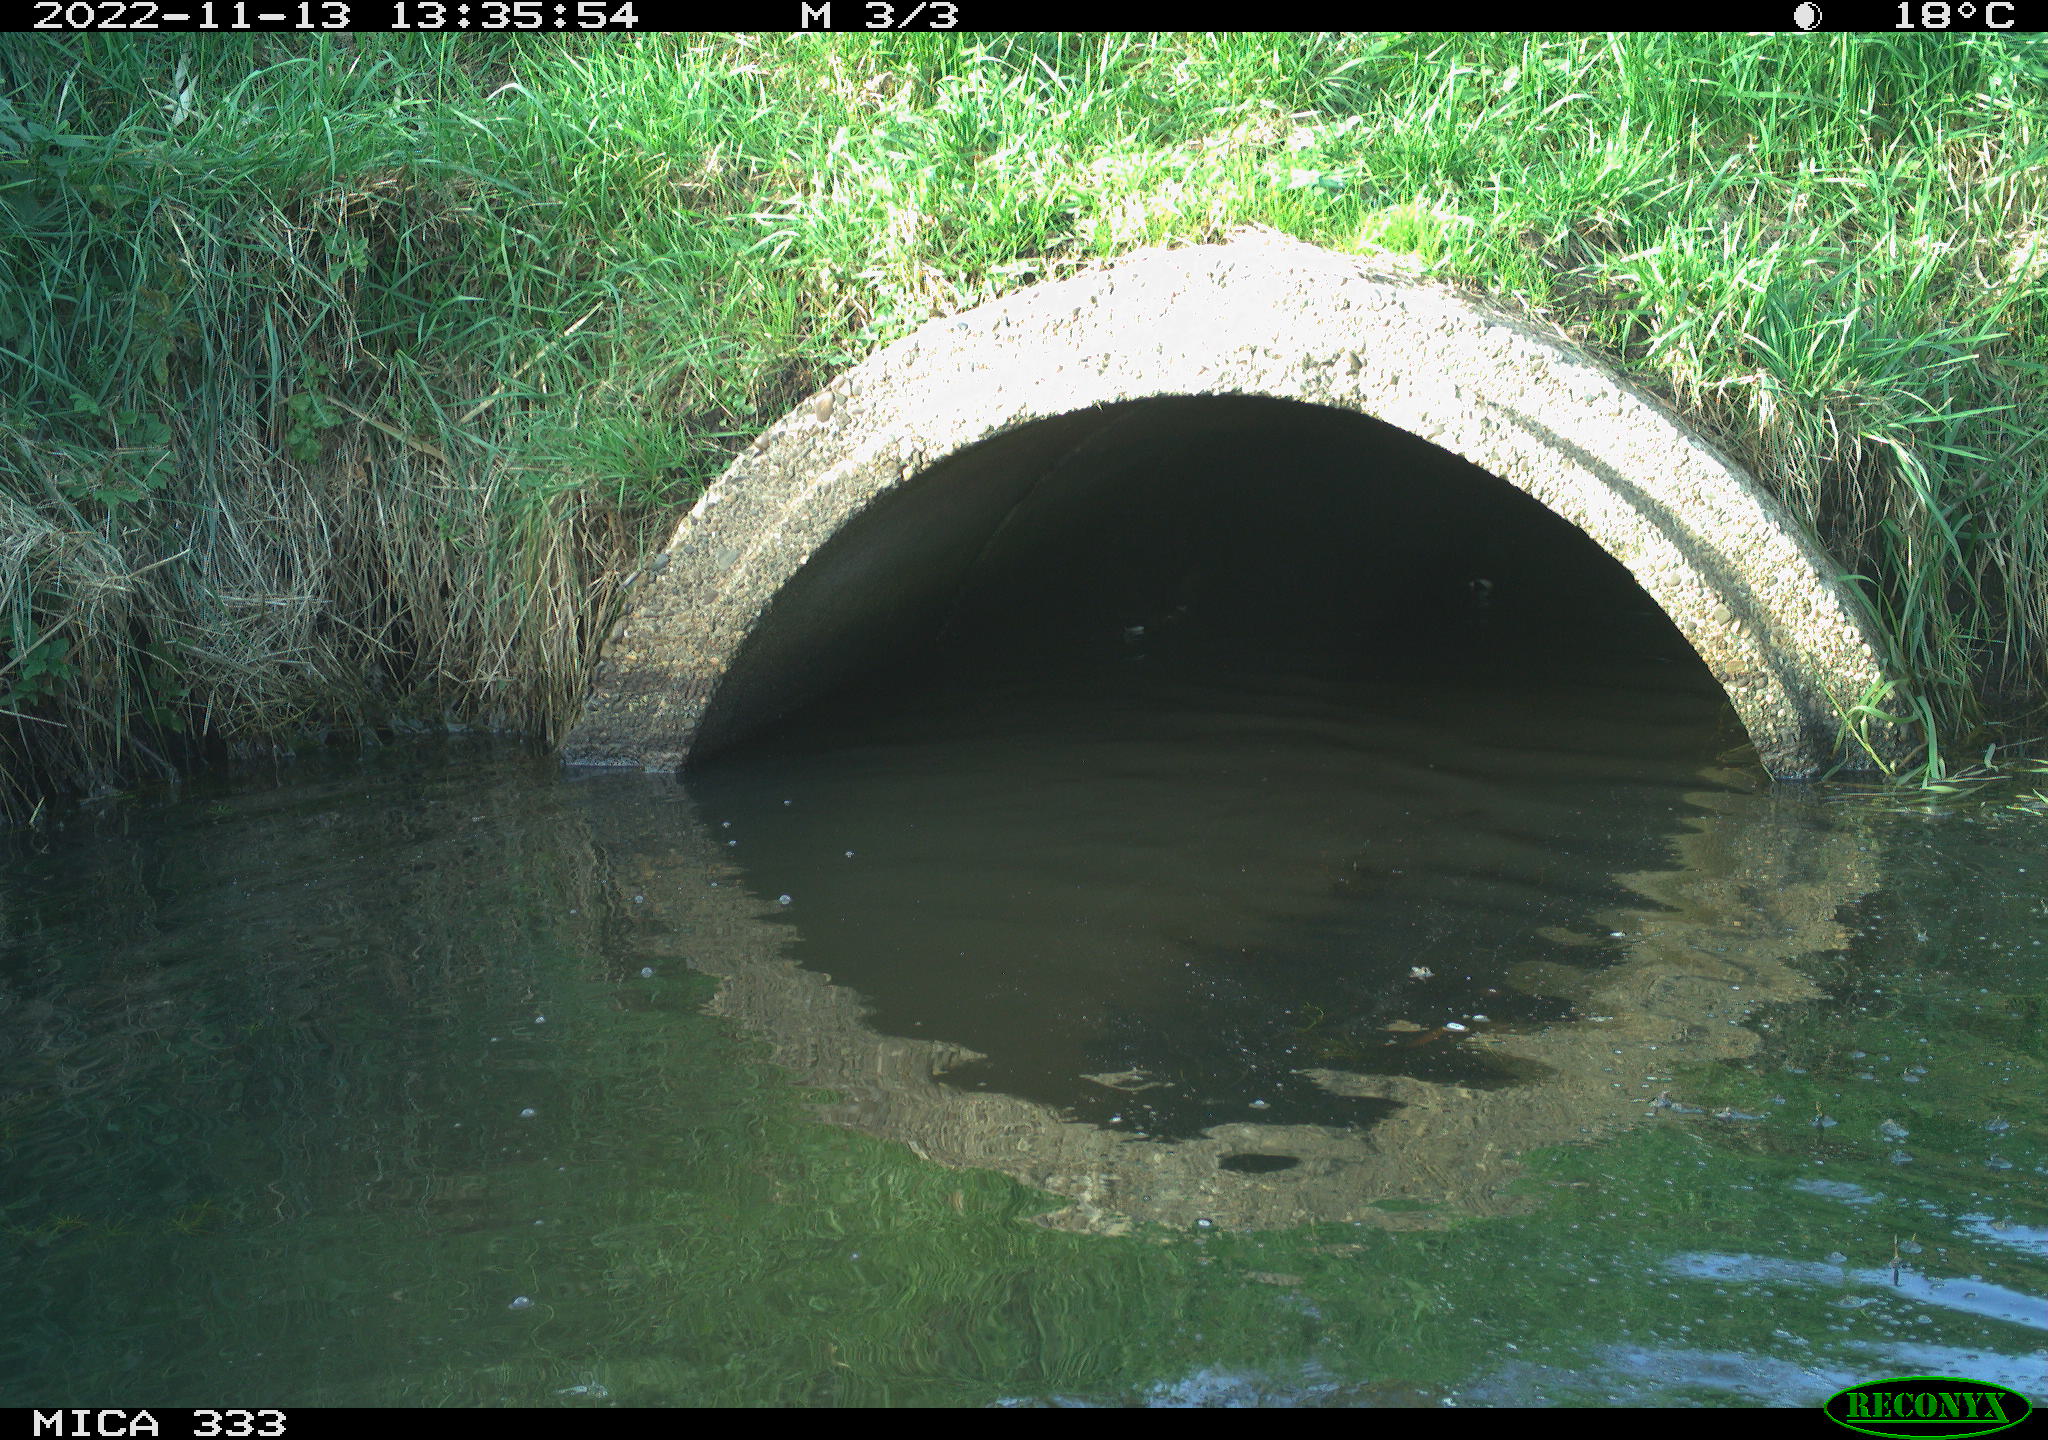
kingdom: Animalia
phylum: Chordata
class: Aves
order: Gruiformes
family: Rallidae
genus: Gallinula
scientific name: Gallinula chloropus
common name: Common moorhen
